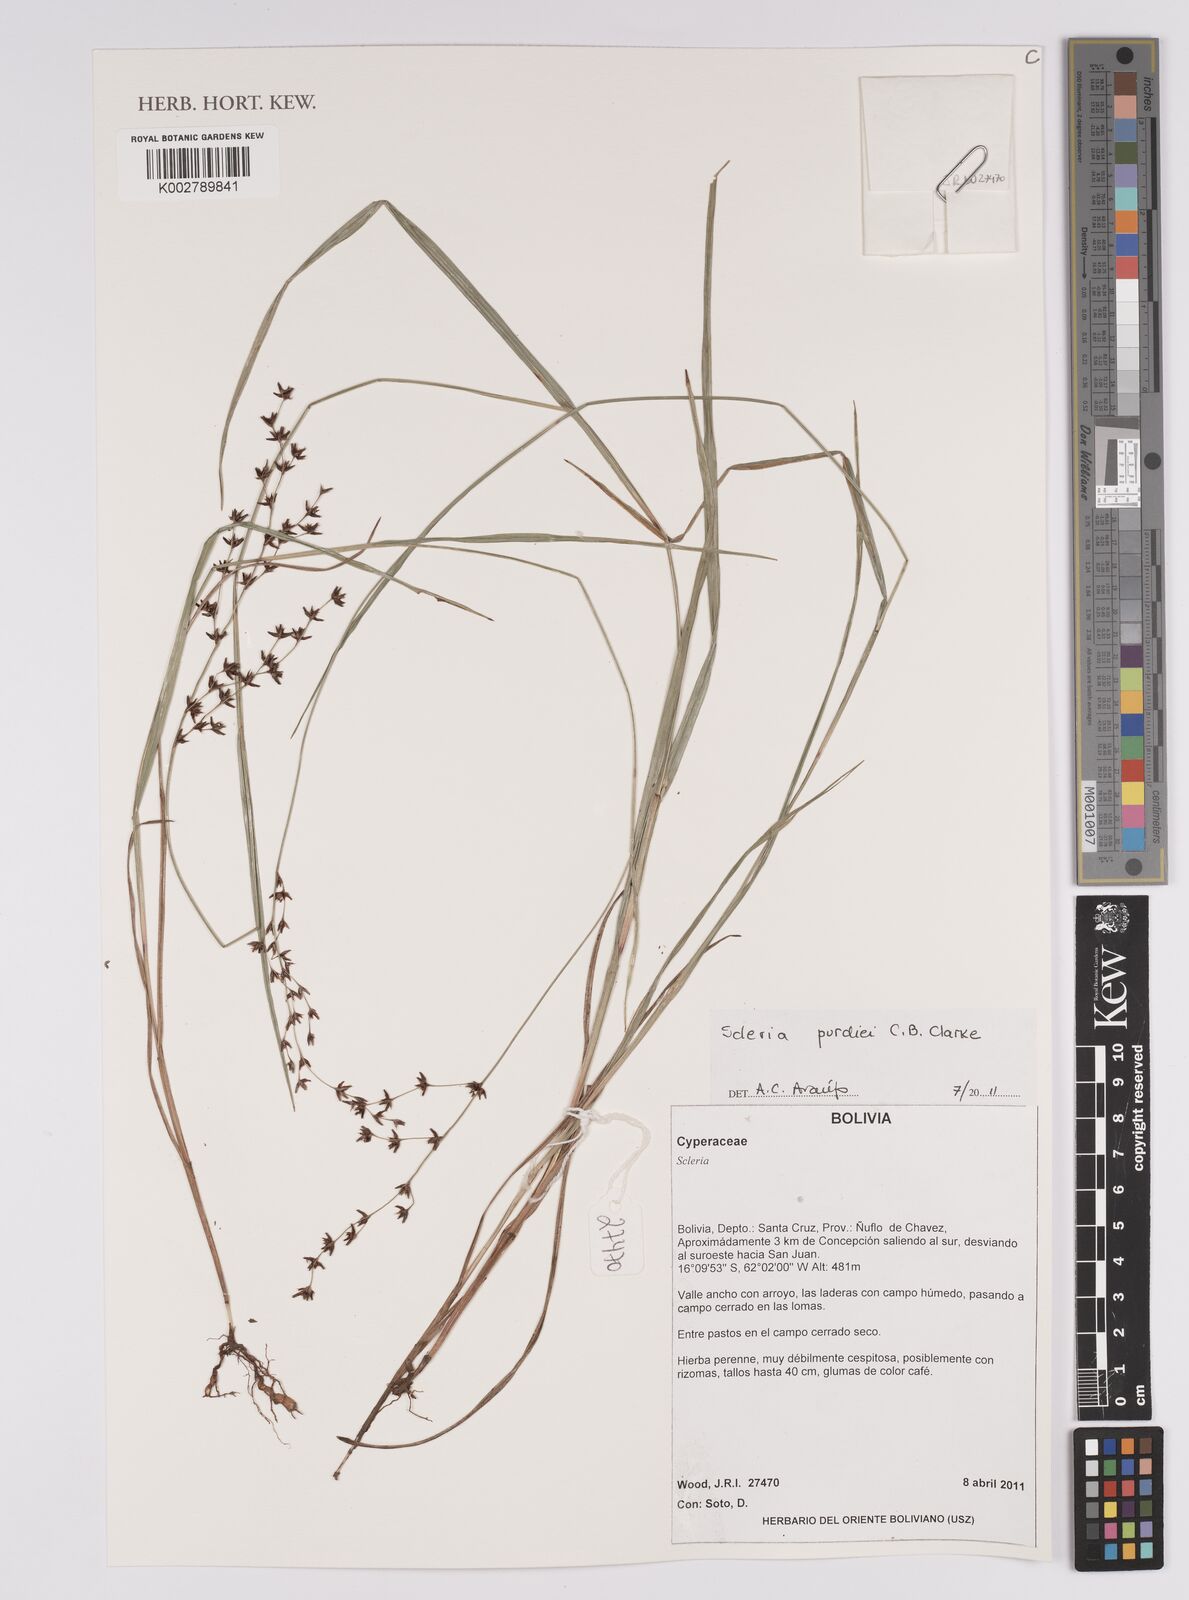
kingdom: Plantae
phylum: Tracheophyta
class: Liliopsida
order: Poales
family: Cyperaceae
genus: Scleria
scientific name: Scleria purdiei
